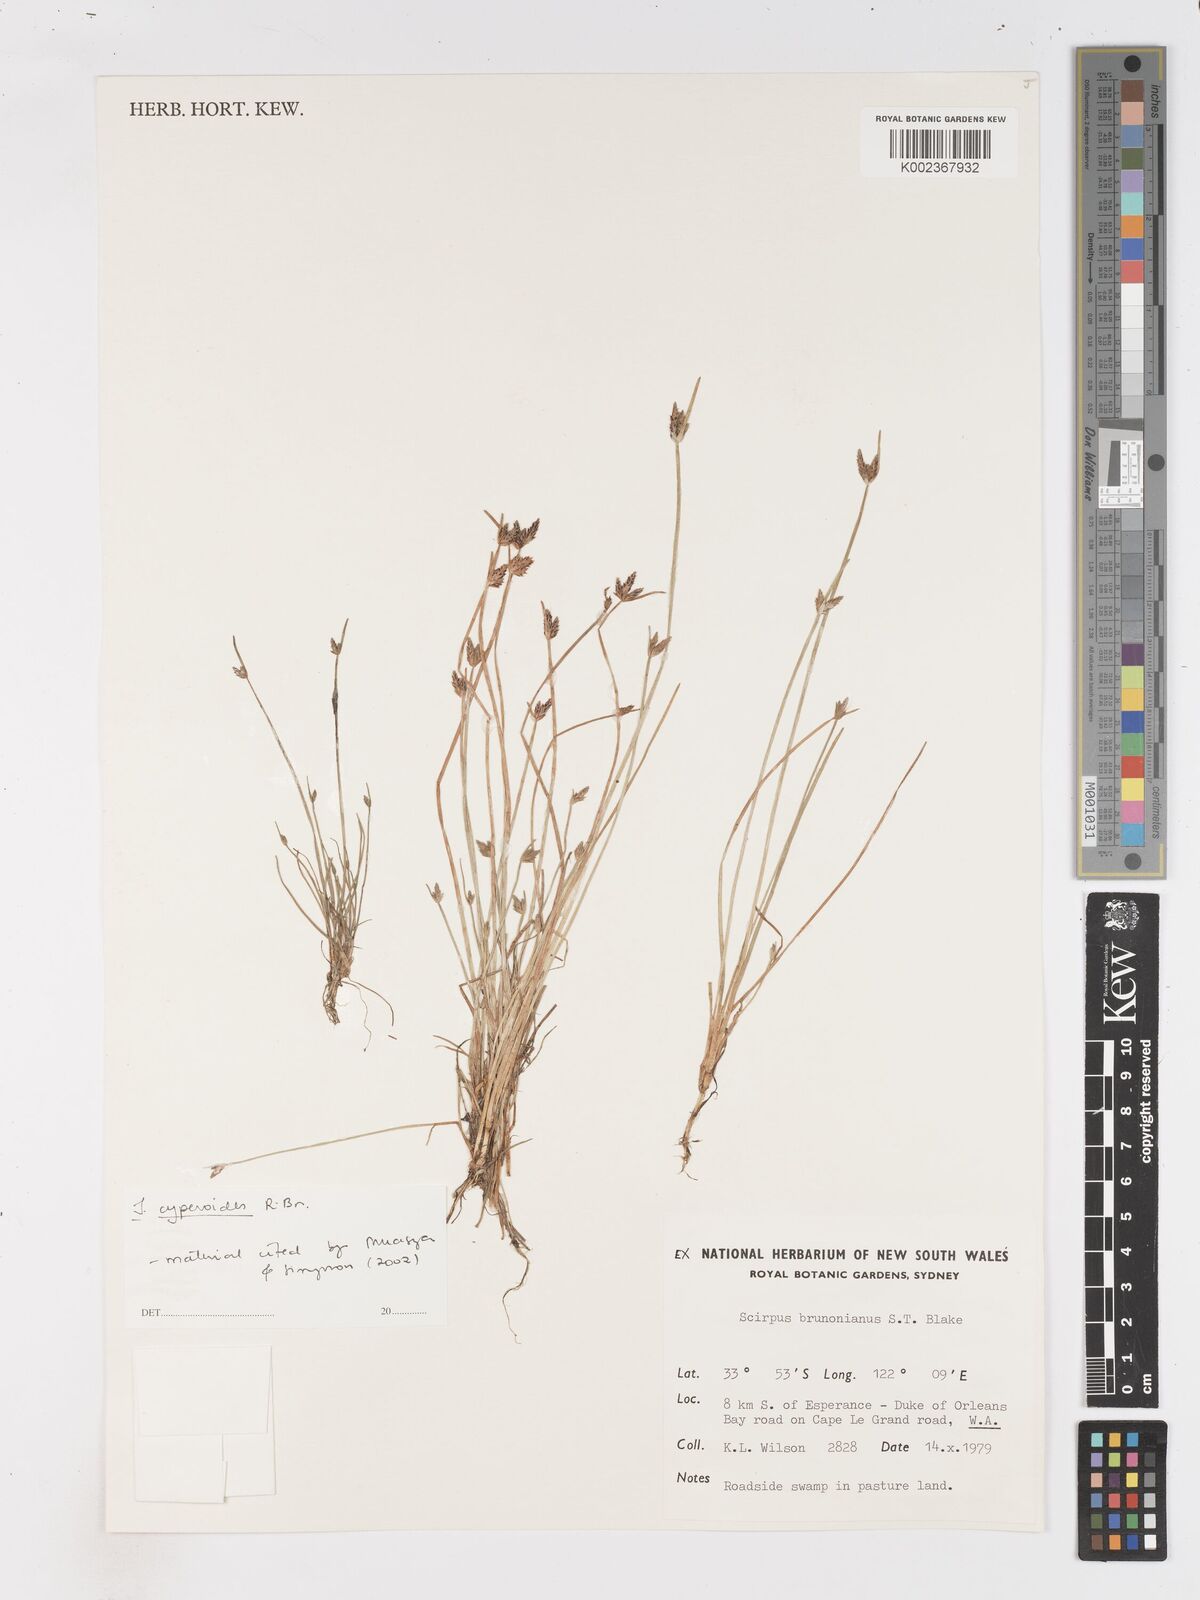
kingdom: Plantae
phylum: Tracheophyta
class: Liliopsida
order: Poales
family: Cyperaceae
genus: Isolepis
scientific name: Isolepis cyperoides
